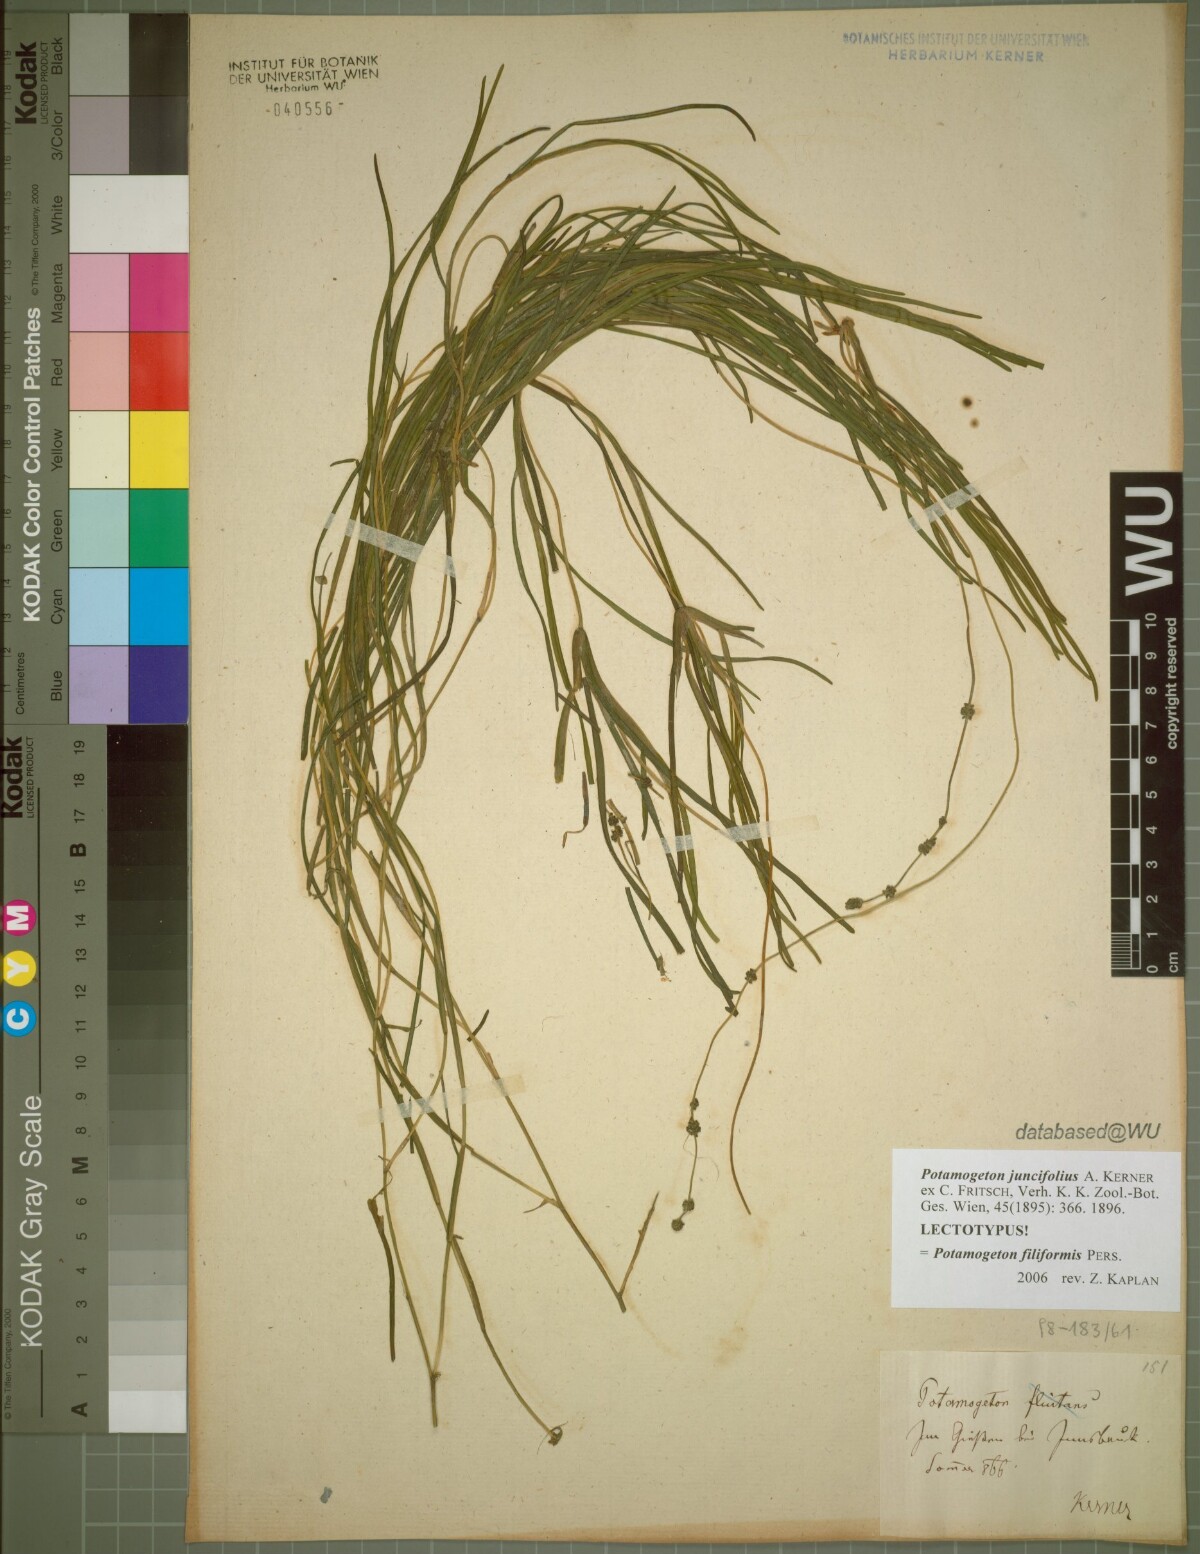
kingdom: Plantae
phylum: Tracheophyta
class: Liliopsida
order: Alismatales
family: Potamogetonaceae
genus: Stuckenia
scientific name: Stuckenia filiformis
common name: Alpine thread-leaved pondweed
